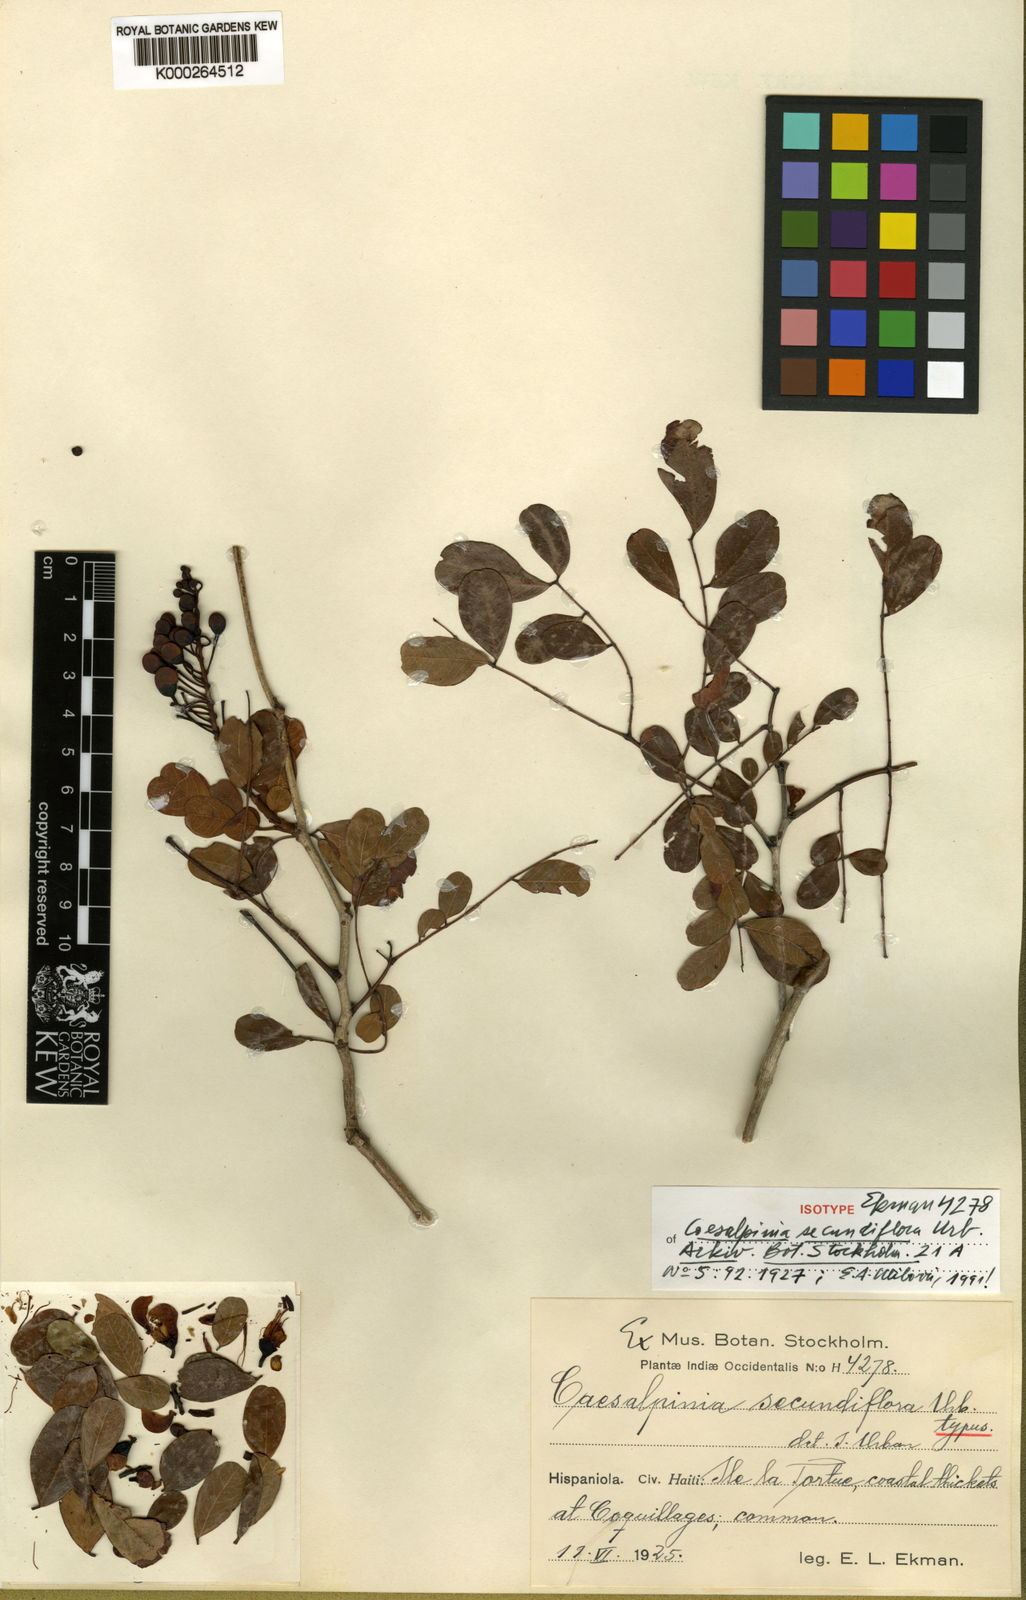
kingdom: Plantae
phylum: Tracheophyta
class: Magnoliopsida
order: Fabales
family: Fabaceae
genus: Caesalpinia
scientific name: Caesalpinia
